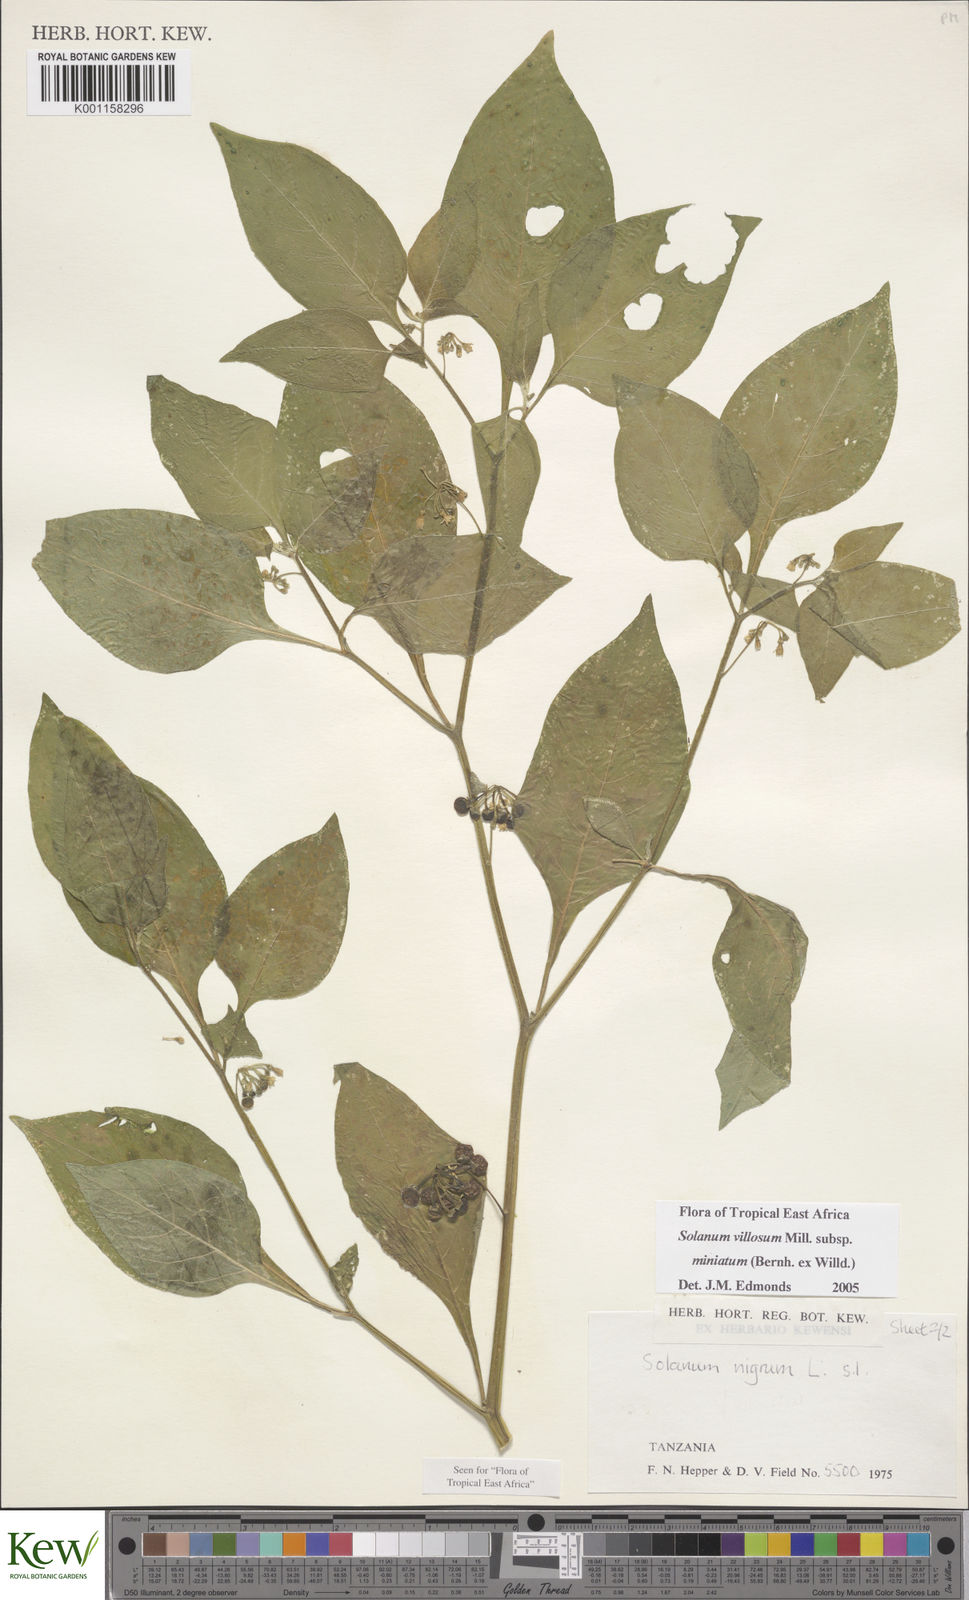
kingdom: Plantae
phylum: Tracheophyta
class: Magnoliopsida
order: Solanales
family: Solanaceae
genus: Solanum
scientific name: Solanum villosum
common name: Red nightshade
